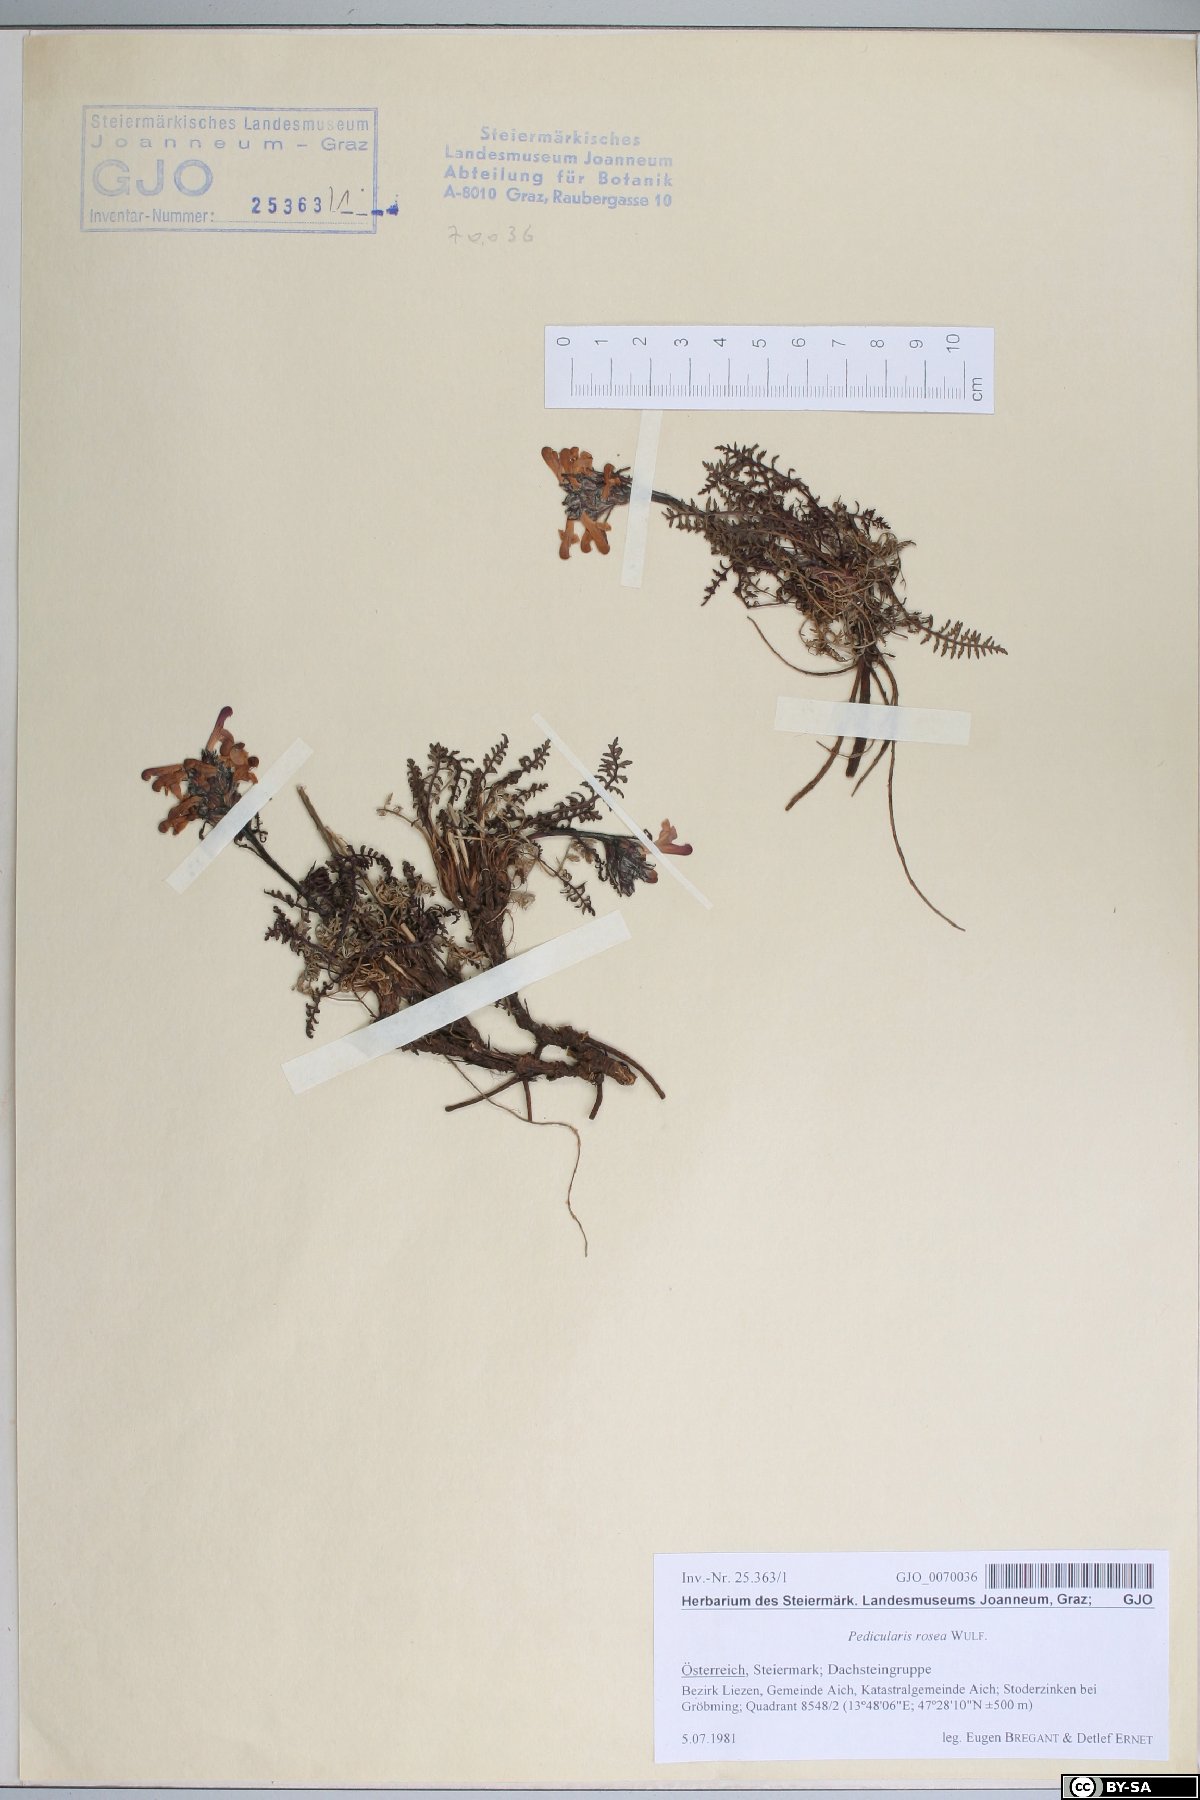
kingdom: Plantae
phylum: Tracheophyta
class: Magnoliopsida
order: Lamiales
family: Orobanchaceae
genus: Pedicularis
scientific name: Pedicularis rosea
